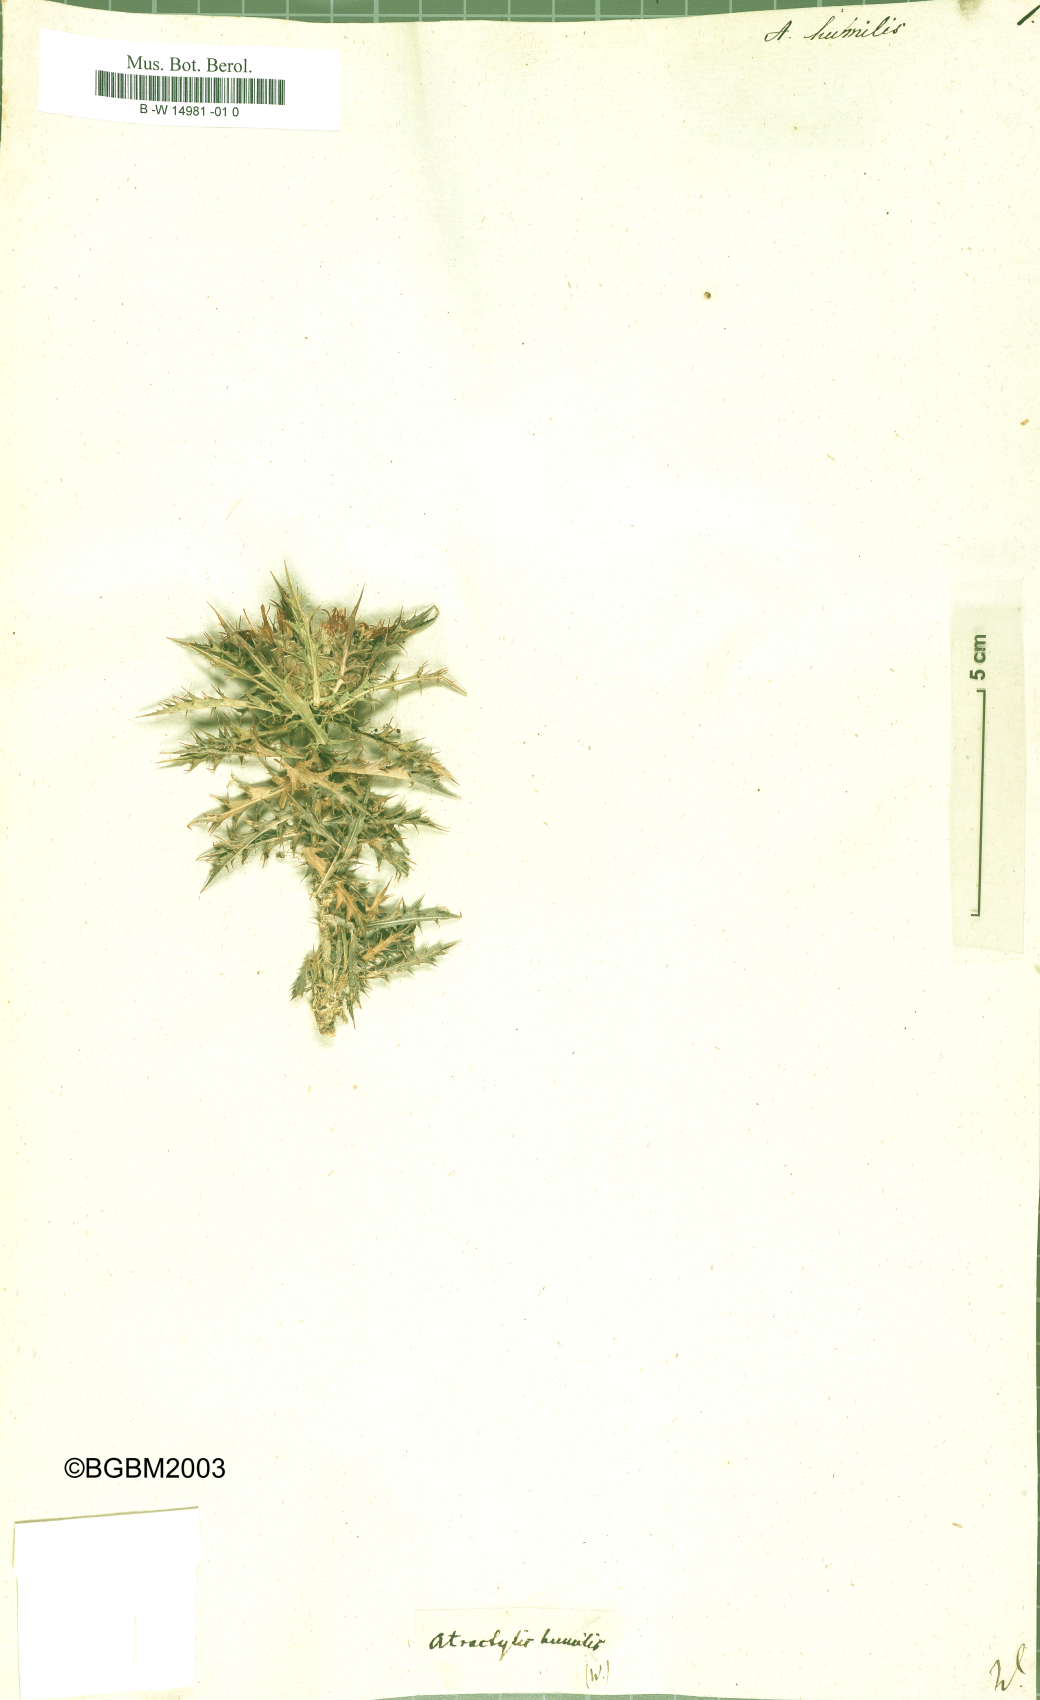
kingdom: Plantae
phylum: Tracheophyta
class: Magnoliopsida
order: Asterales
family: Asteraceae
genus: Atractylis
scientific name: Atractylis humilis
